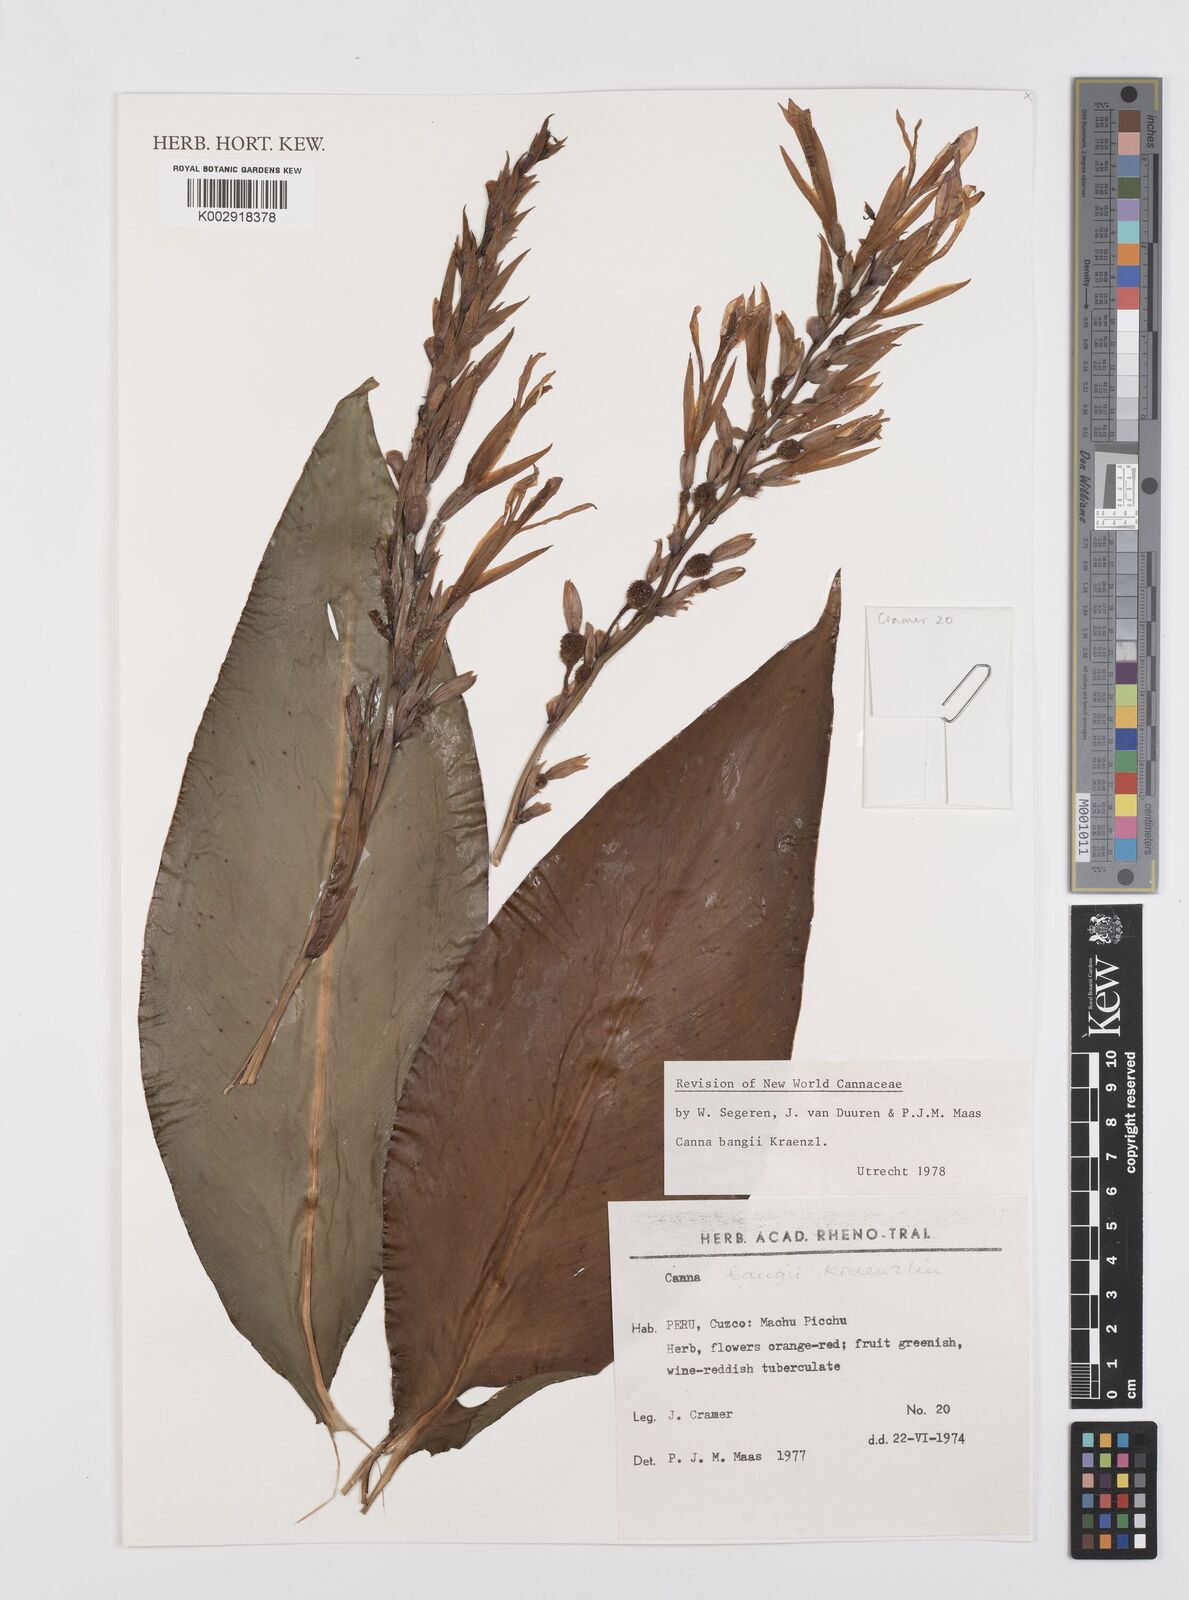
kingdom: Plantae
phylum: Tracheophyta
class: Liliopsida
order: Zingiberales
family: Cannaceae
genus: Canna
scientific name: Canna bangii
